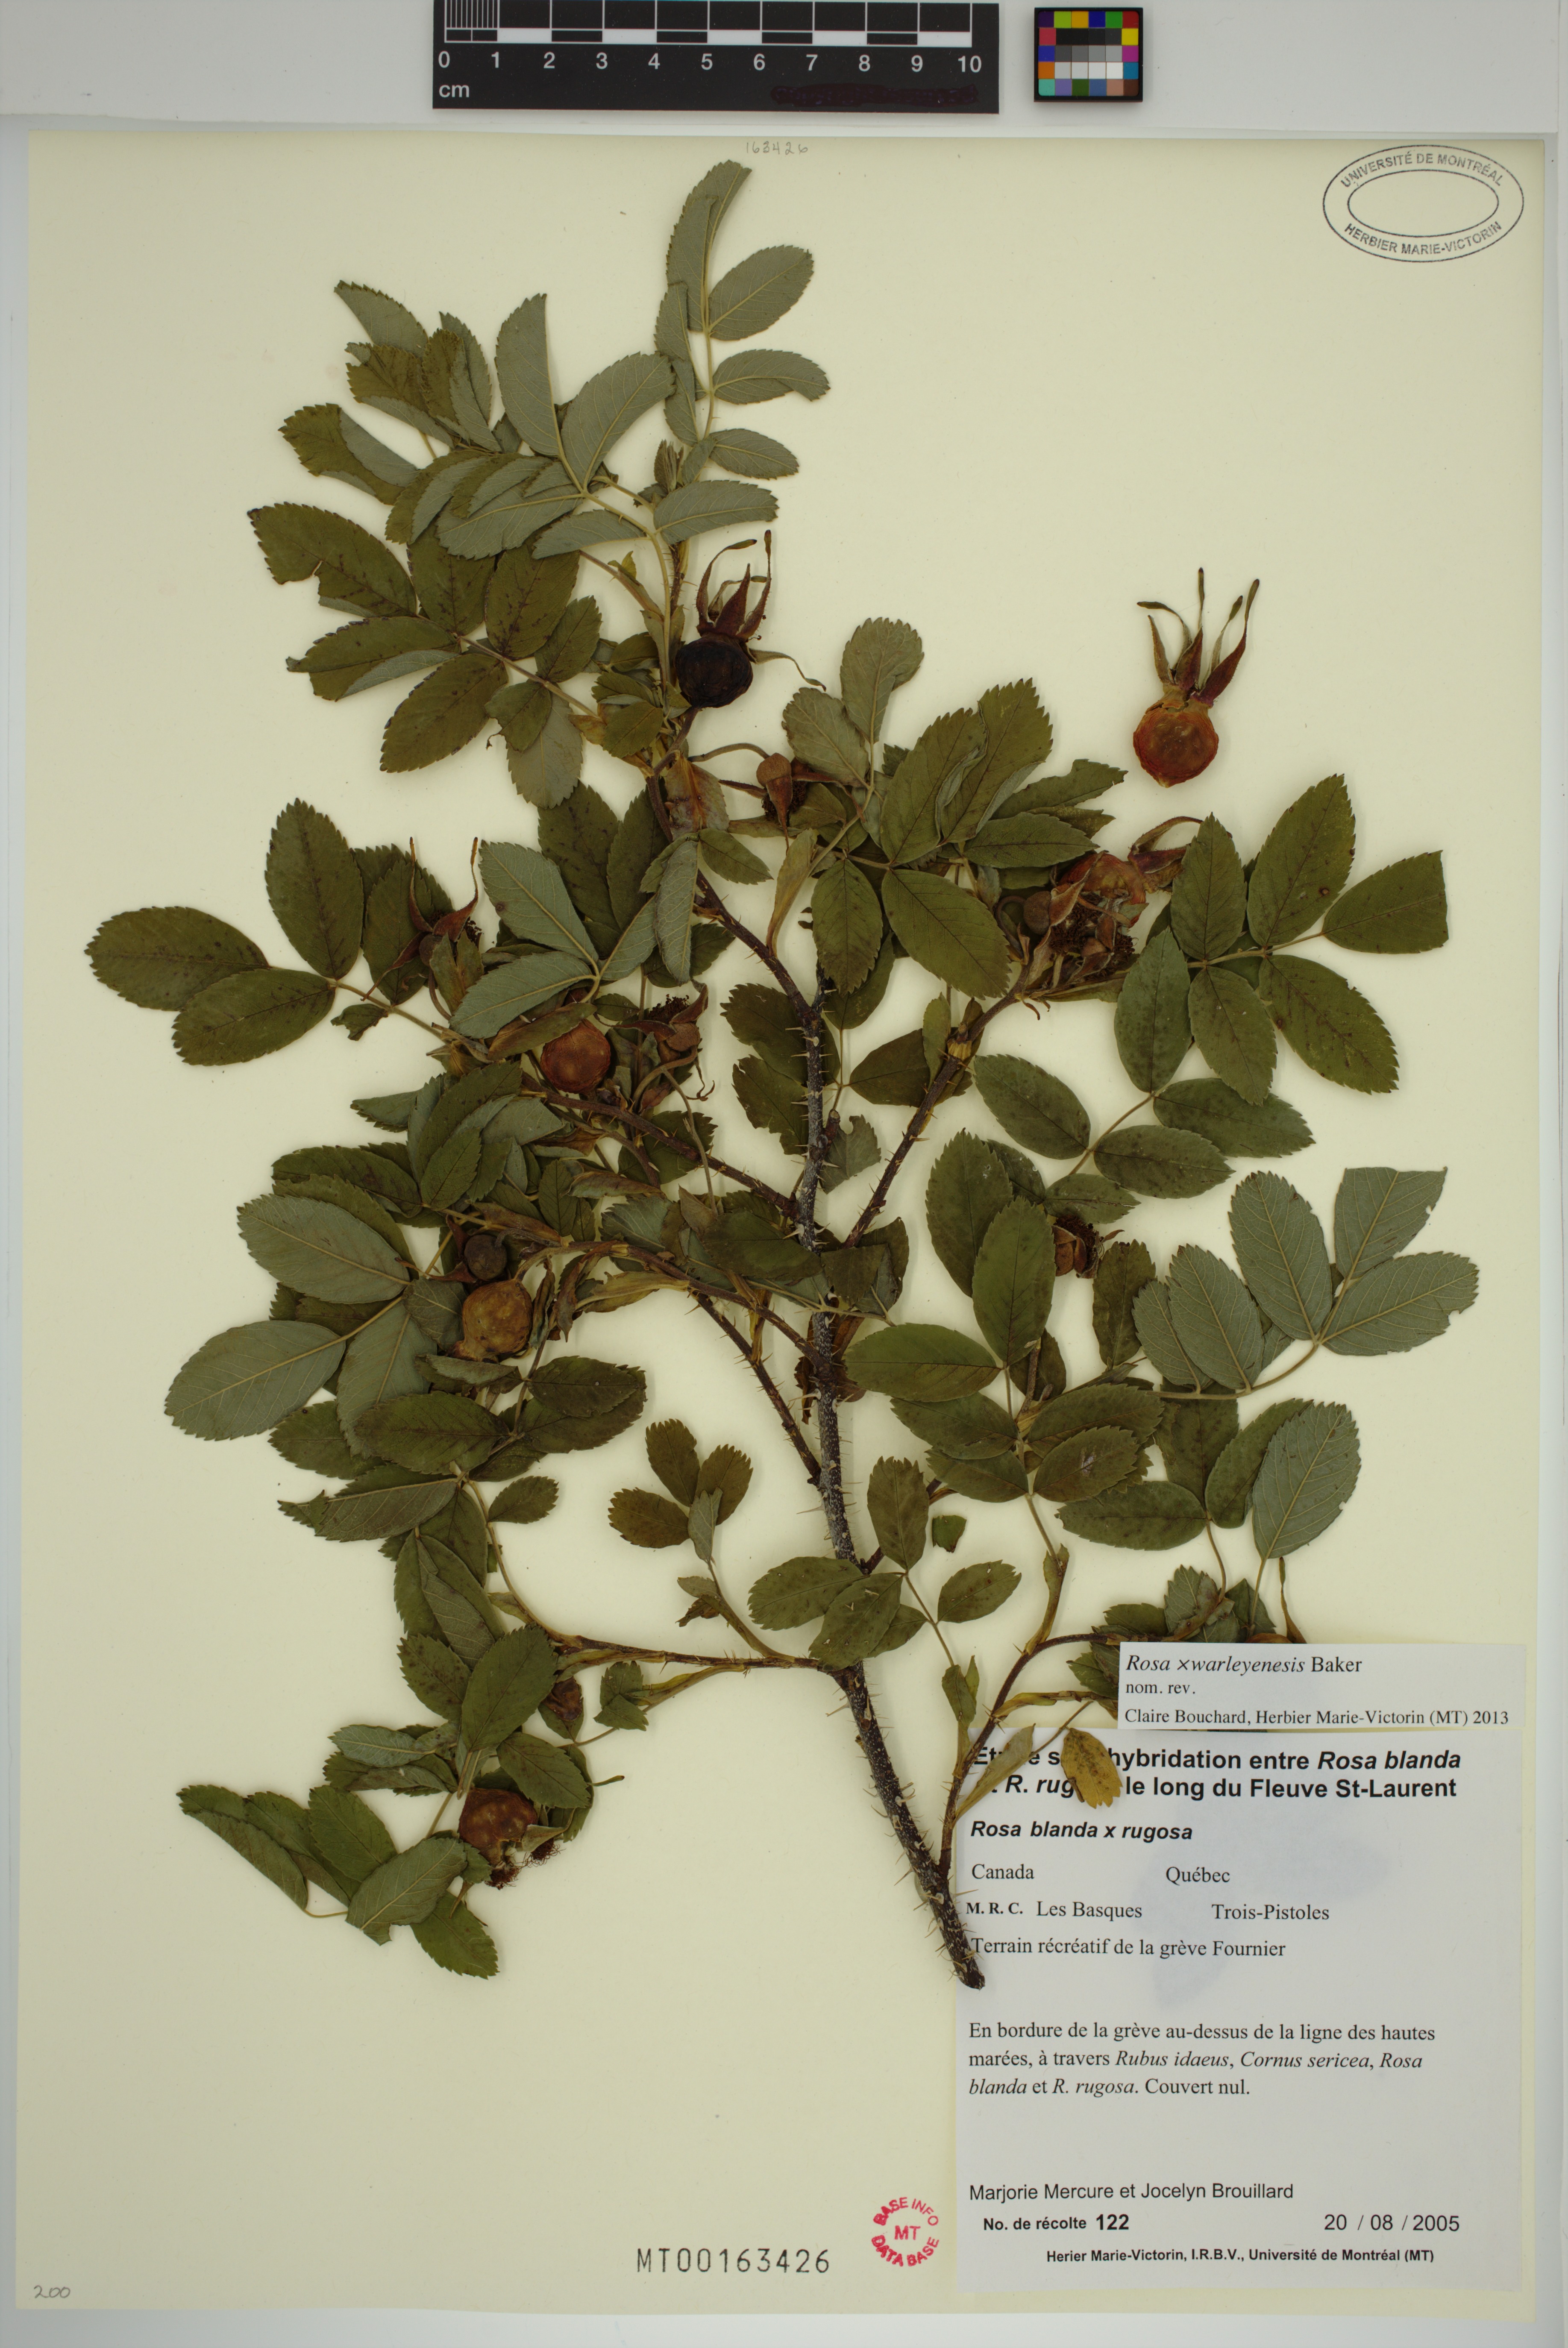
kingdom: Plantae
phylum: Tracheophyta
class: Magnoliopsida
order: Rosales
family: Rosaceae
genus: Rosa
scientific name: Rosa warleyensis
